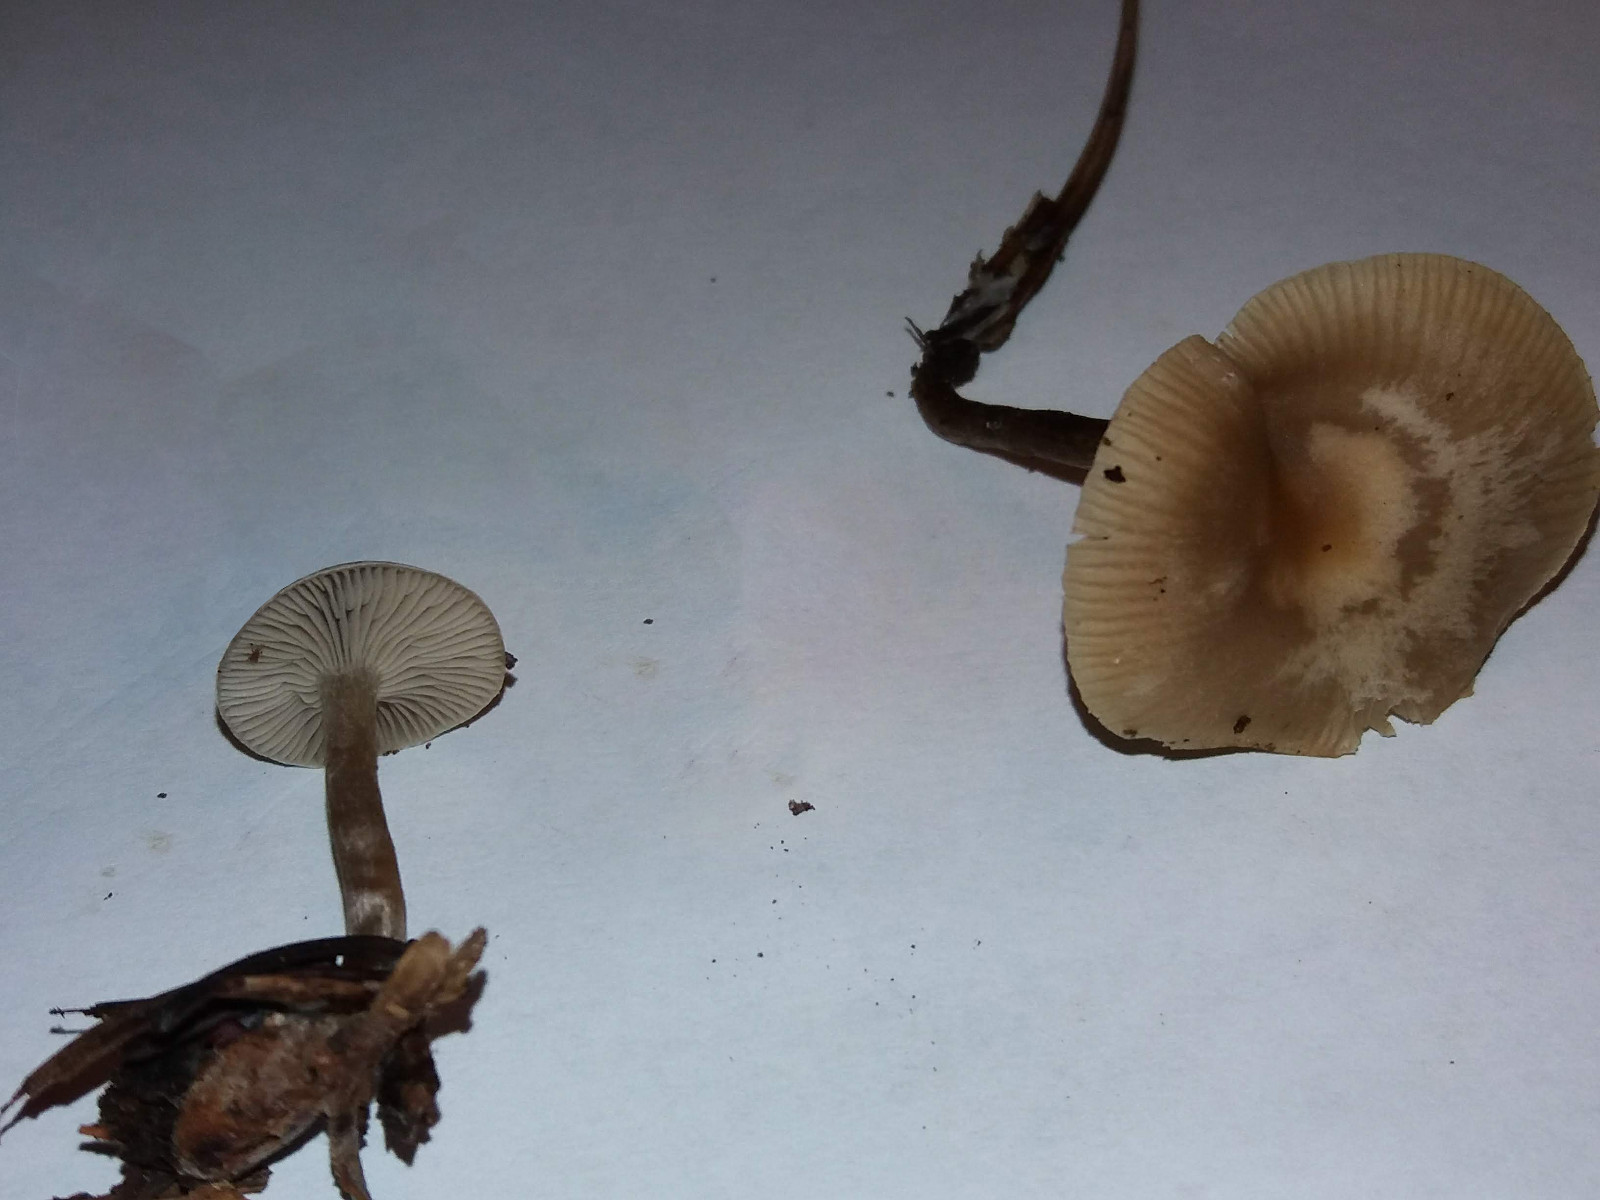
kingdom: Fungi
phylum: Basidiomycota
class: Agaricomycetes
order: Agaricales
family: Tricholomataceae
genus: Clitocybe
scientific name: Clitocybe
